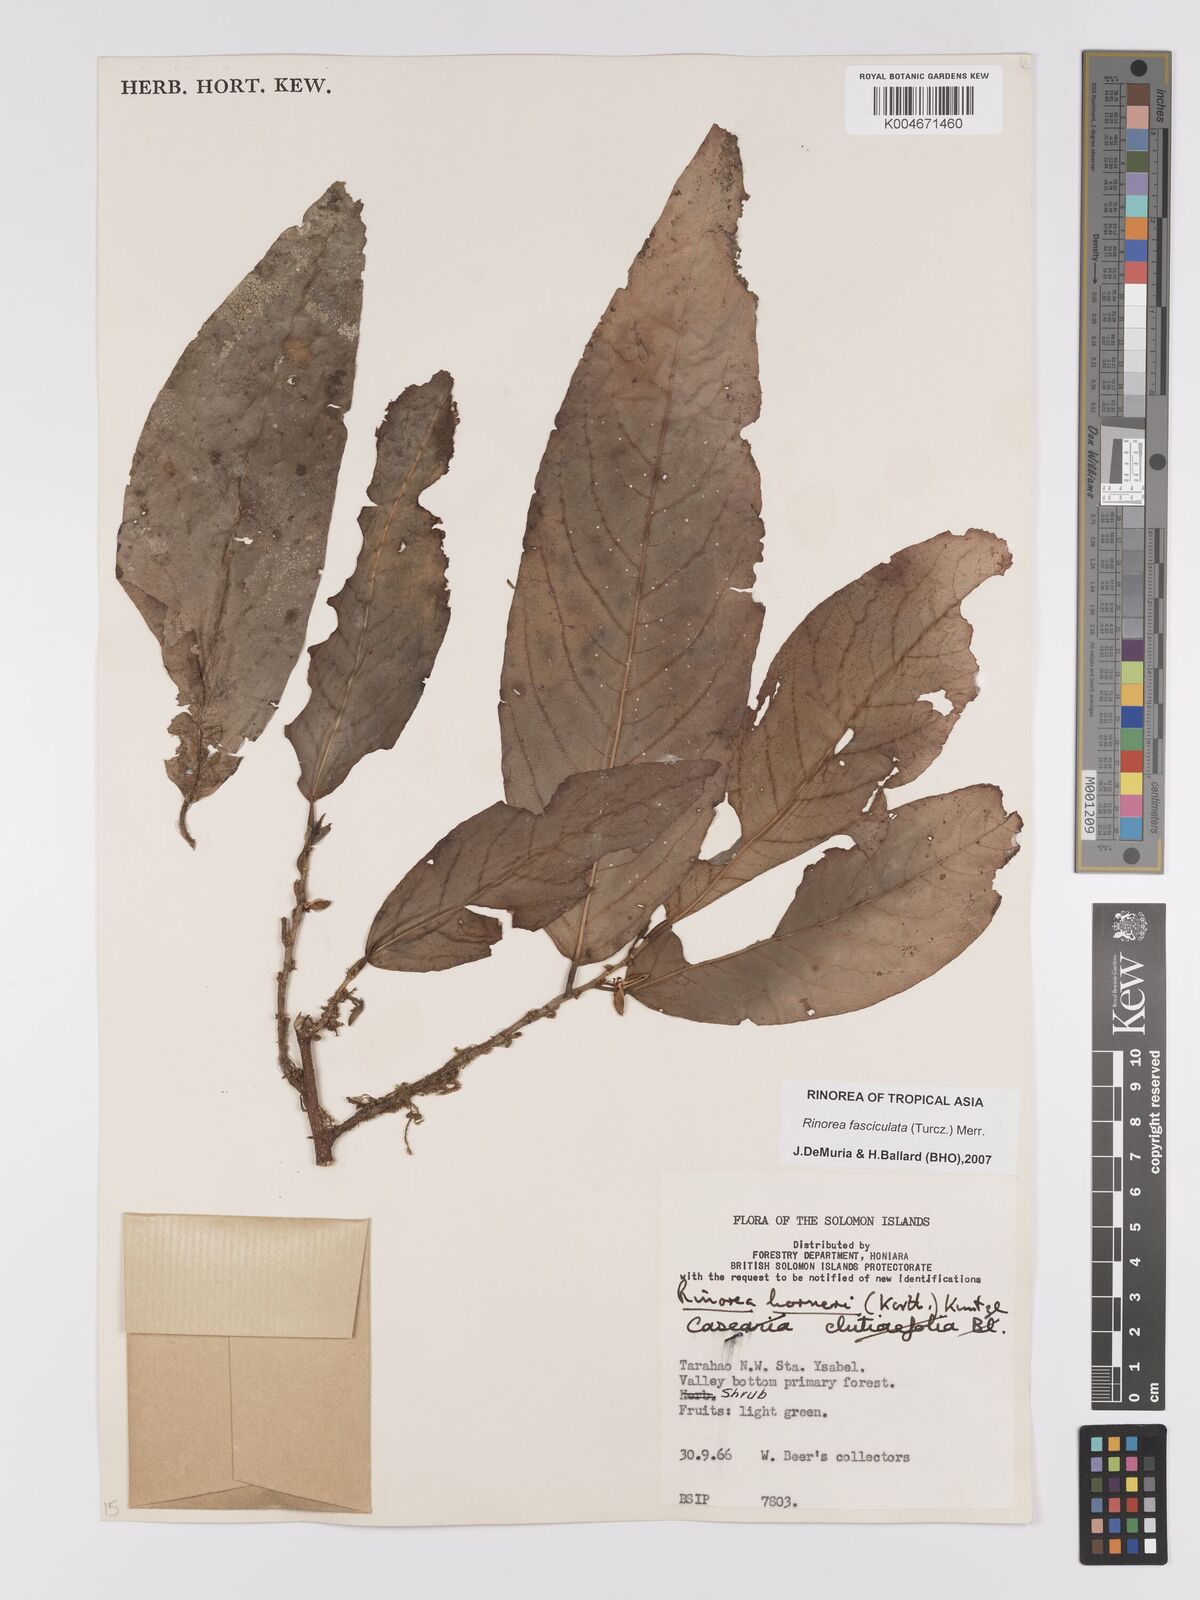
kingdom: Plantae
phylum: Tracheophyta
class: Magnoliopsida
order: Malpighiales
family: Violaceae
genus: Rinorea
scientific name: Rinorea bengalensis
